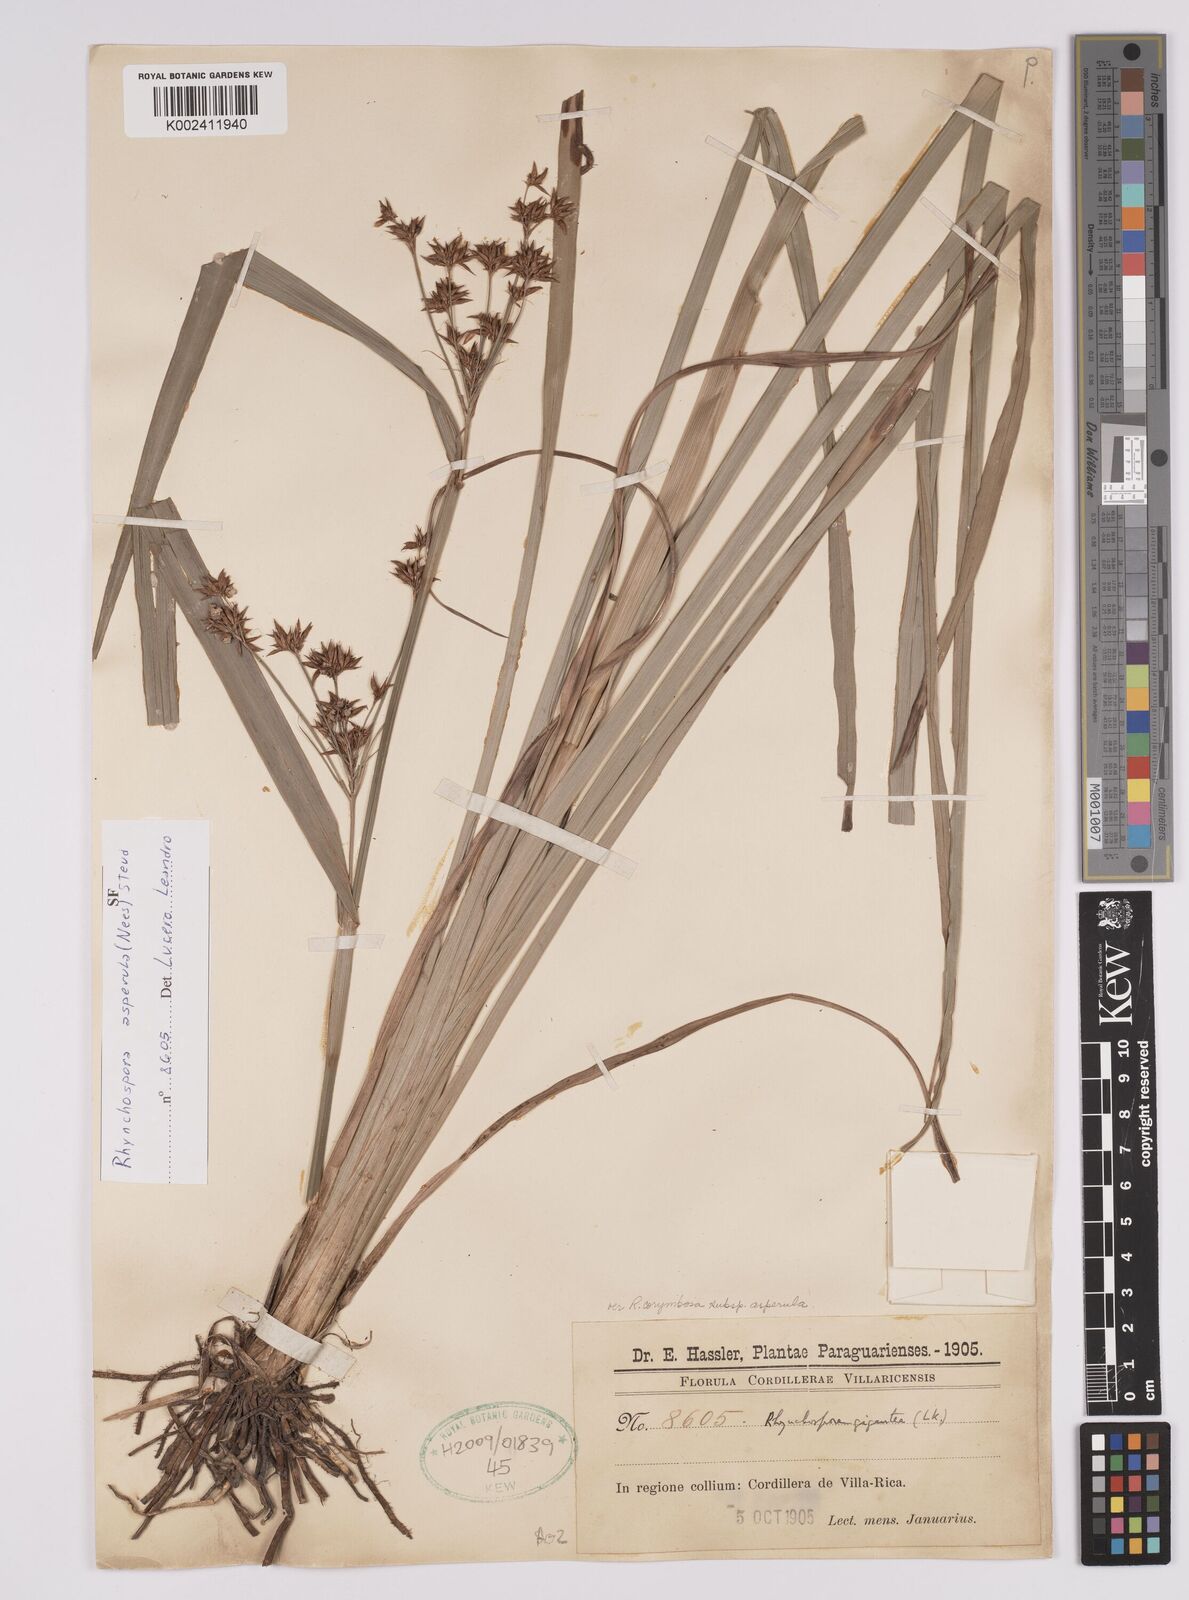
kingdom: Plantae
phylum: Tracheophyta
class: Liliopsida
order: Poales
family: Cyperaceae
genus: Rhynchospora
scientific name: Rhynchospora asperula
